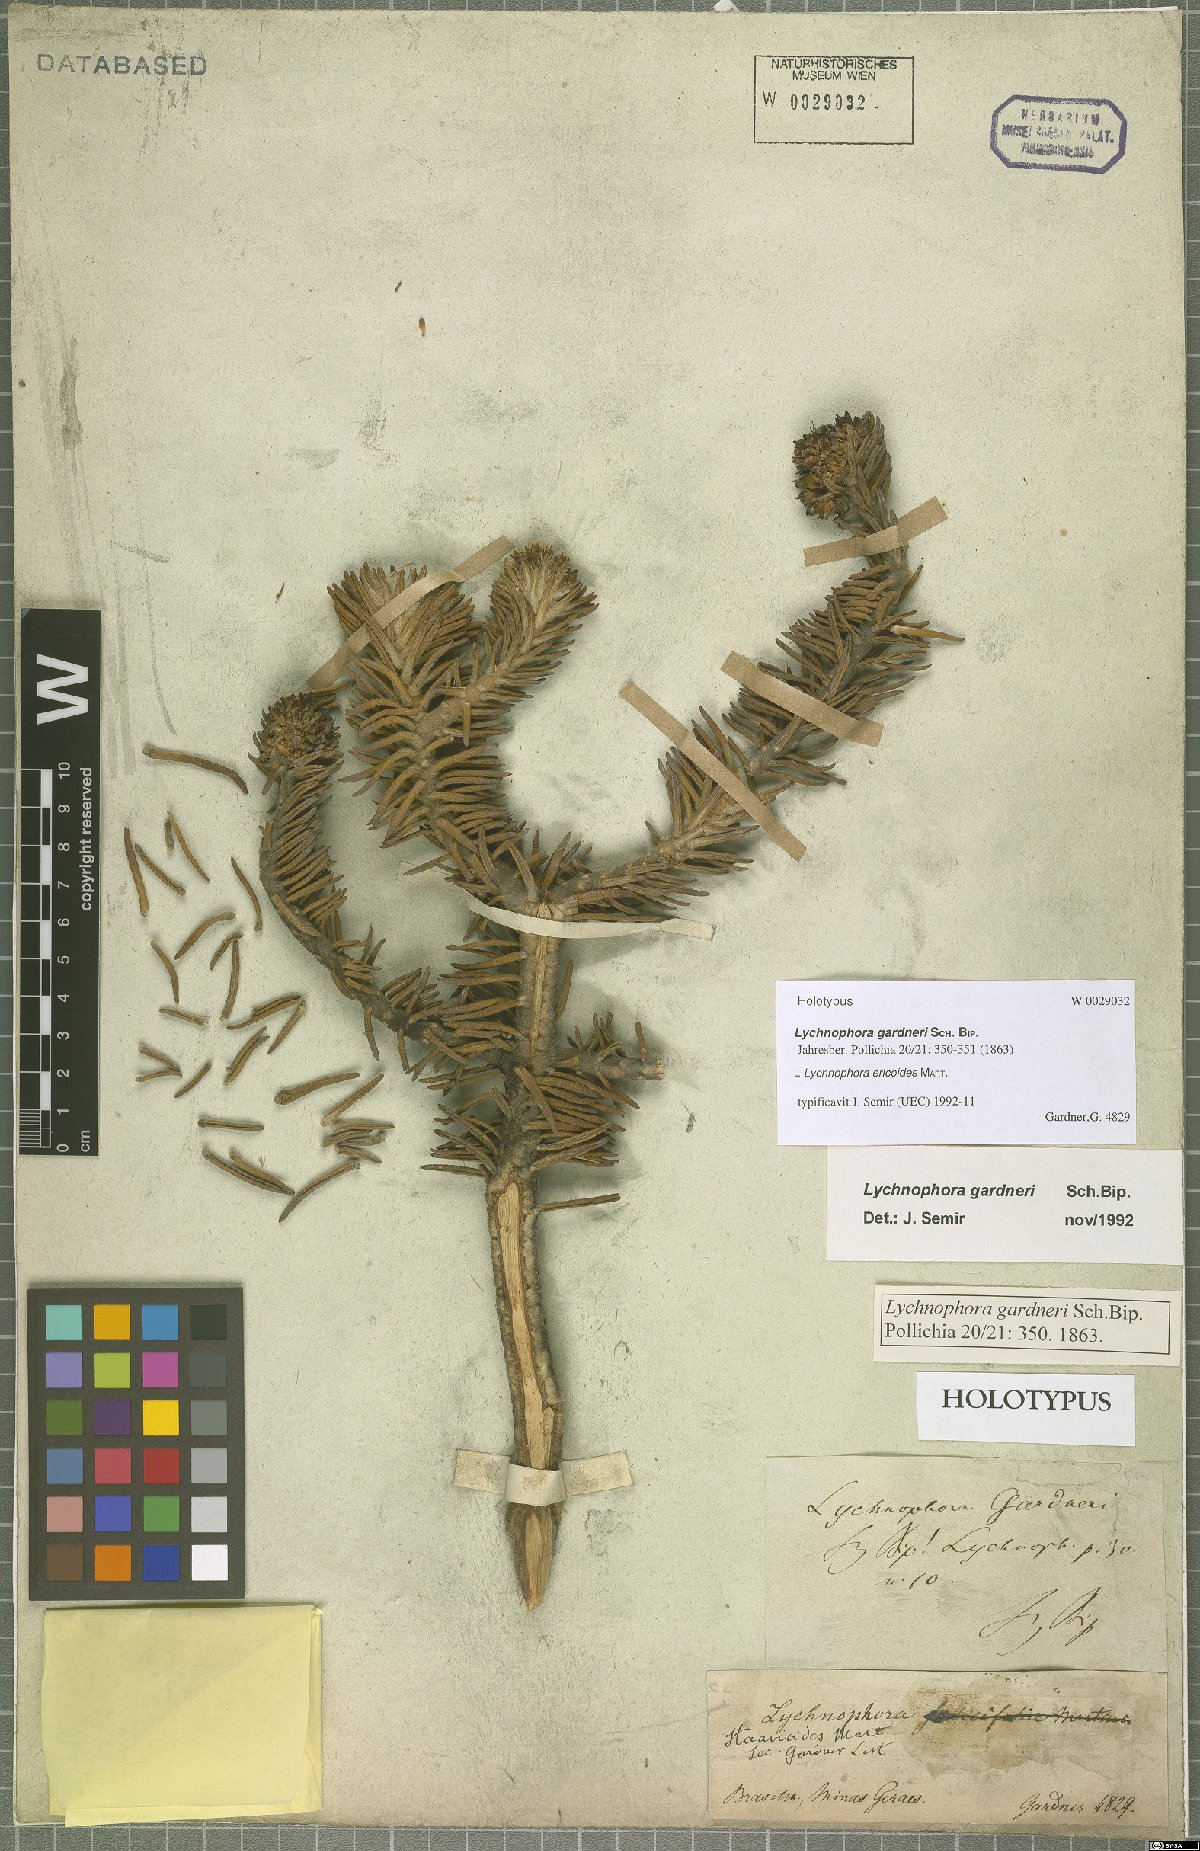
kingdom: Plantae
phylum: Tracheophyta
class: Magnoliopsida
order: Asterales
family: Asteraceae
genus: Lychnophora
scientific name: Lychnophora ericoides
